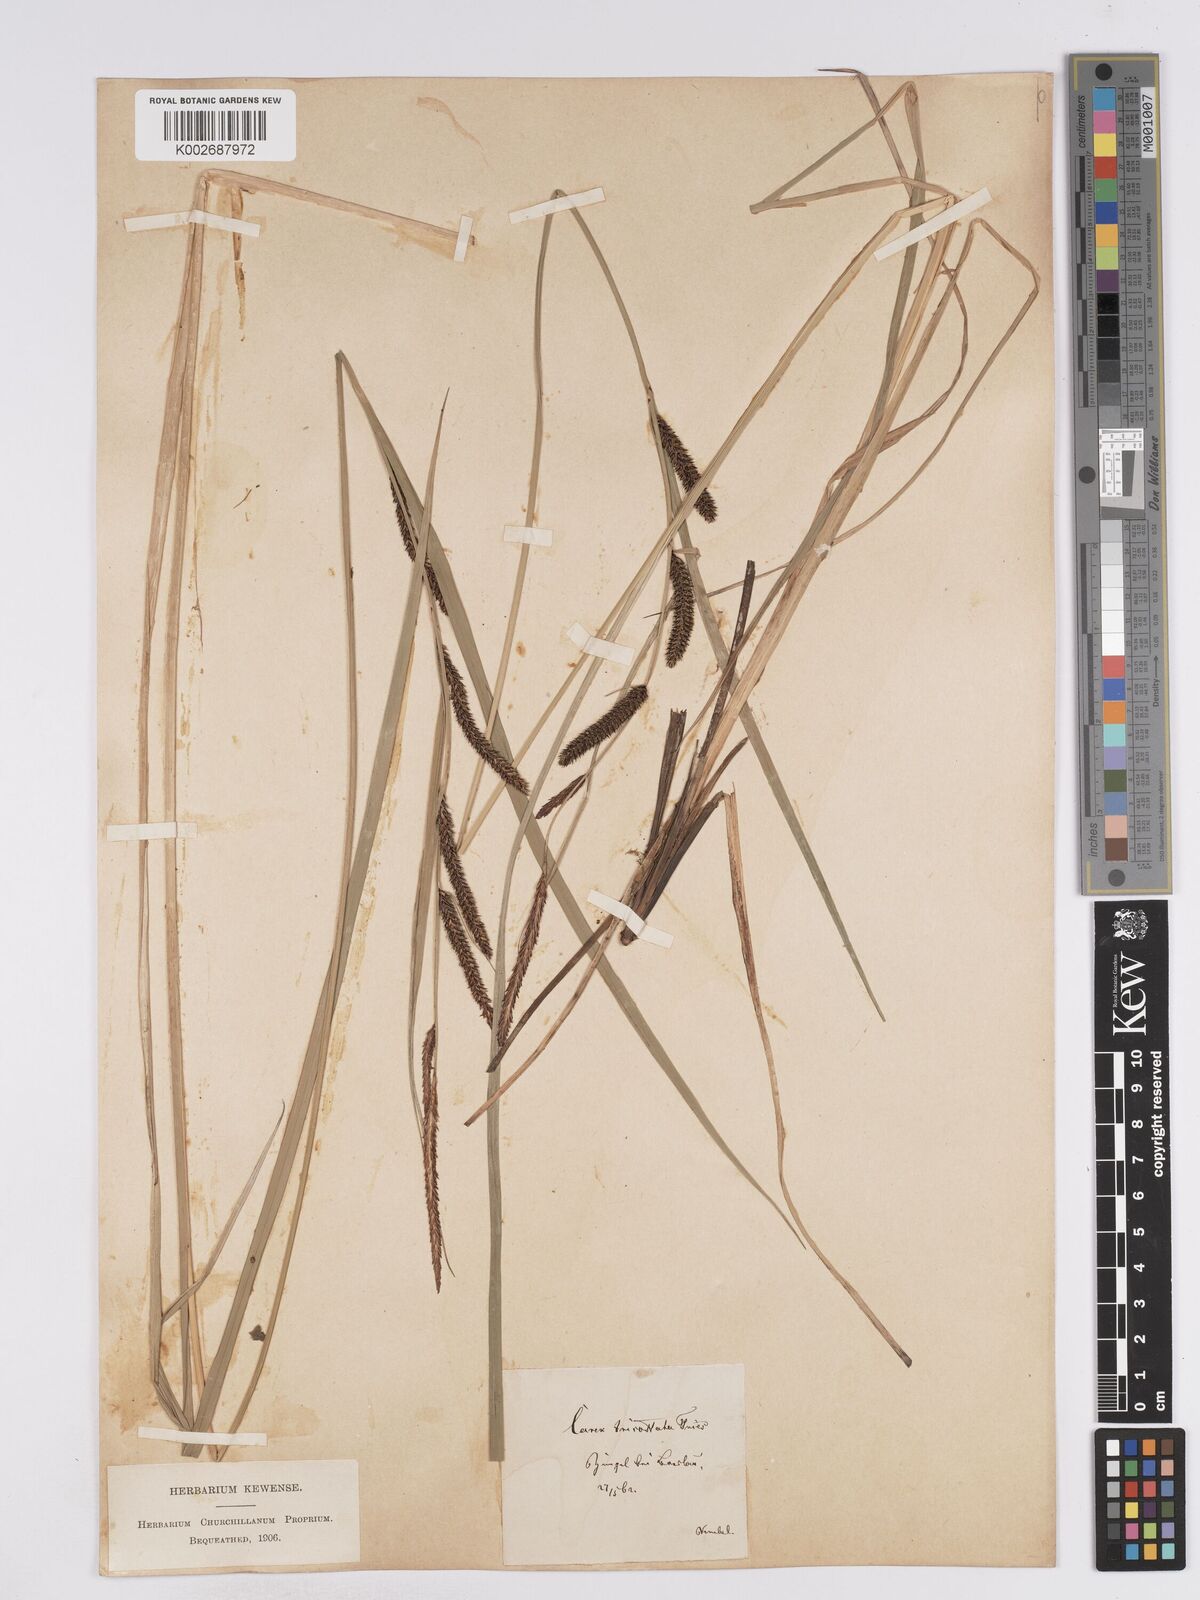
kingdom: Plantae
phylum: Tracheophyta
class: Liliopsida
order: Poales
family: Cyperaceae
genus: Carex
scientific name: Carex acuta
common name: Slender tufted-sedge
